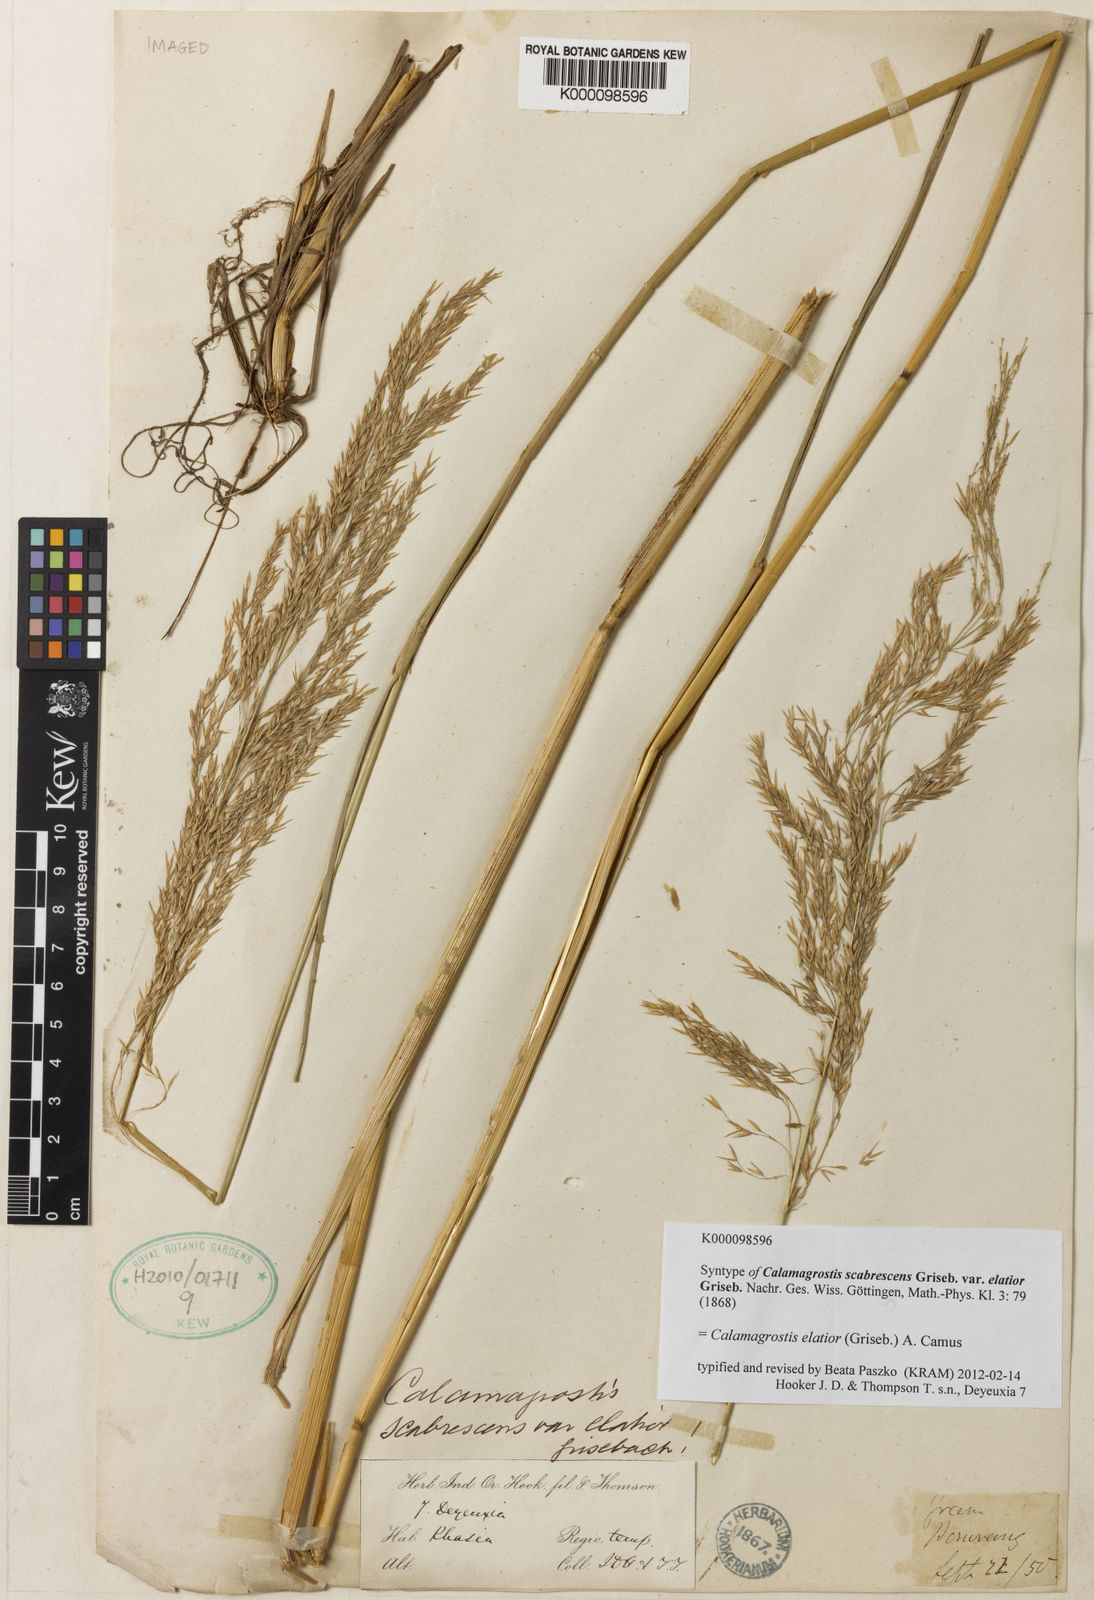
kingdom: Plantae
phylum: Tracheophyta
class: Liliopsida
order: Poales
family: Poaceae
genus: Calamagrostis
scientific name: Calamagrostis elatior
